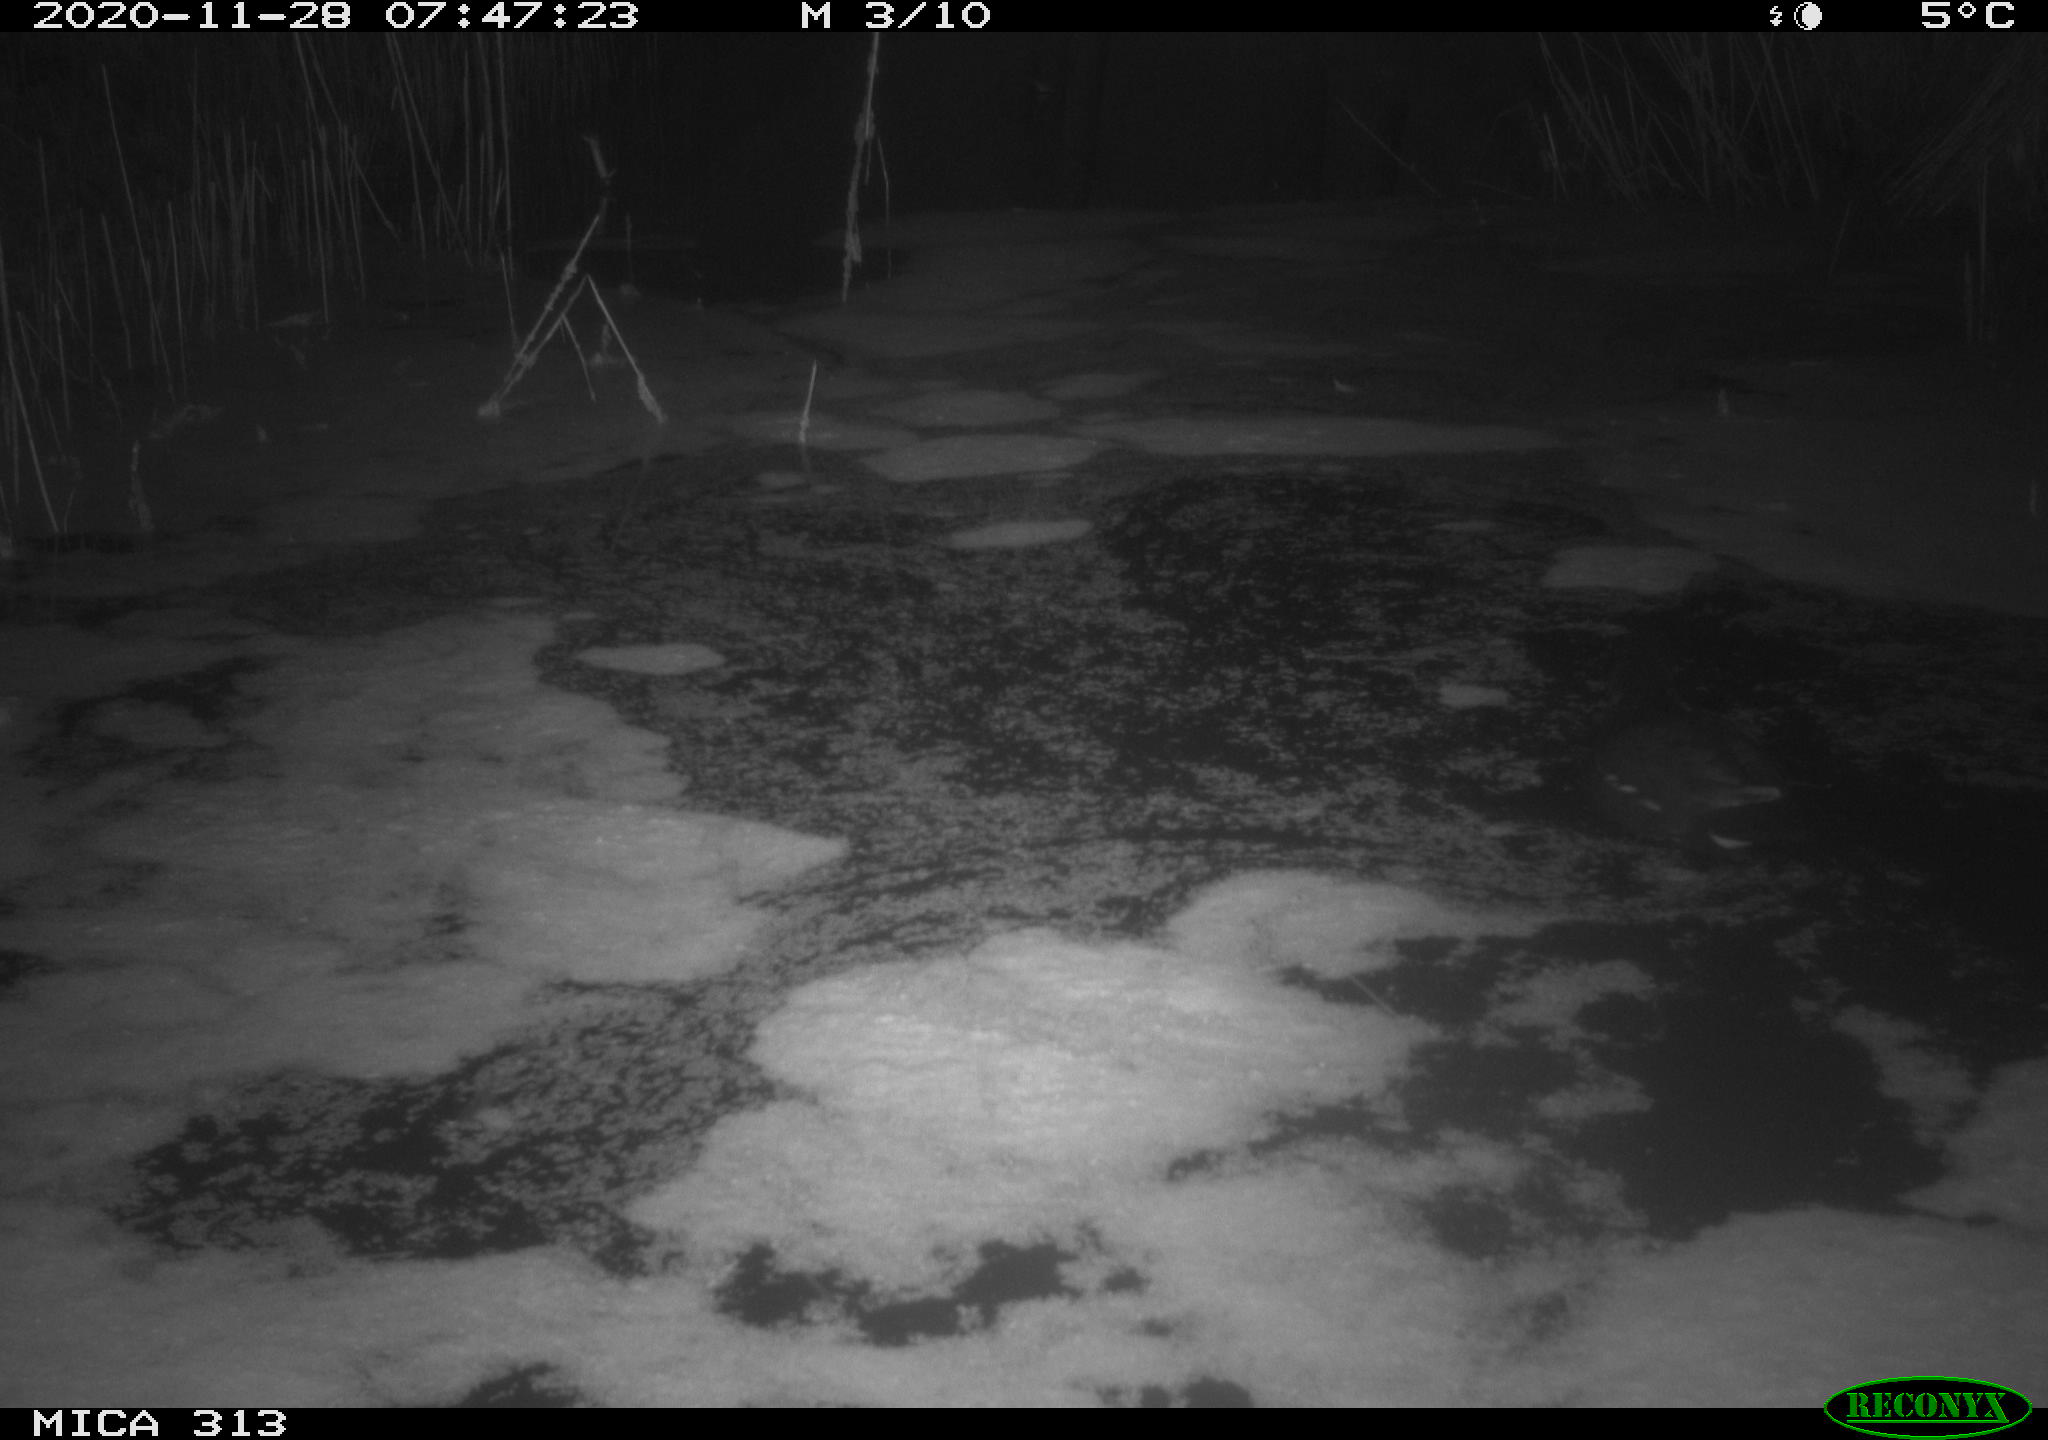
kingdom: Animalia
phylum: Chordata
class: Aves
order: Gruiformes
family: Rallidae
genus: Gallinula
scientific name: Gallinula chloropus
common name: Common moorhen
